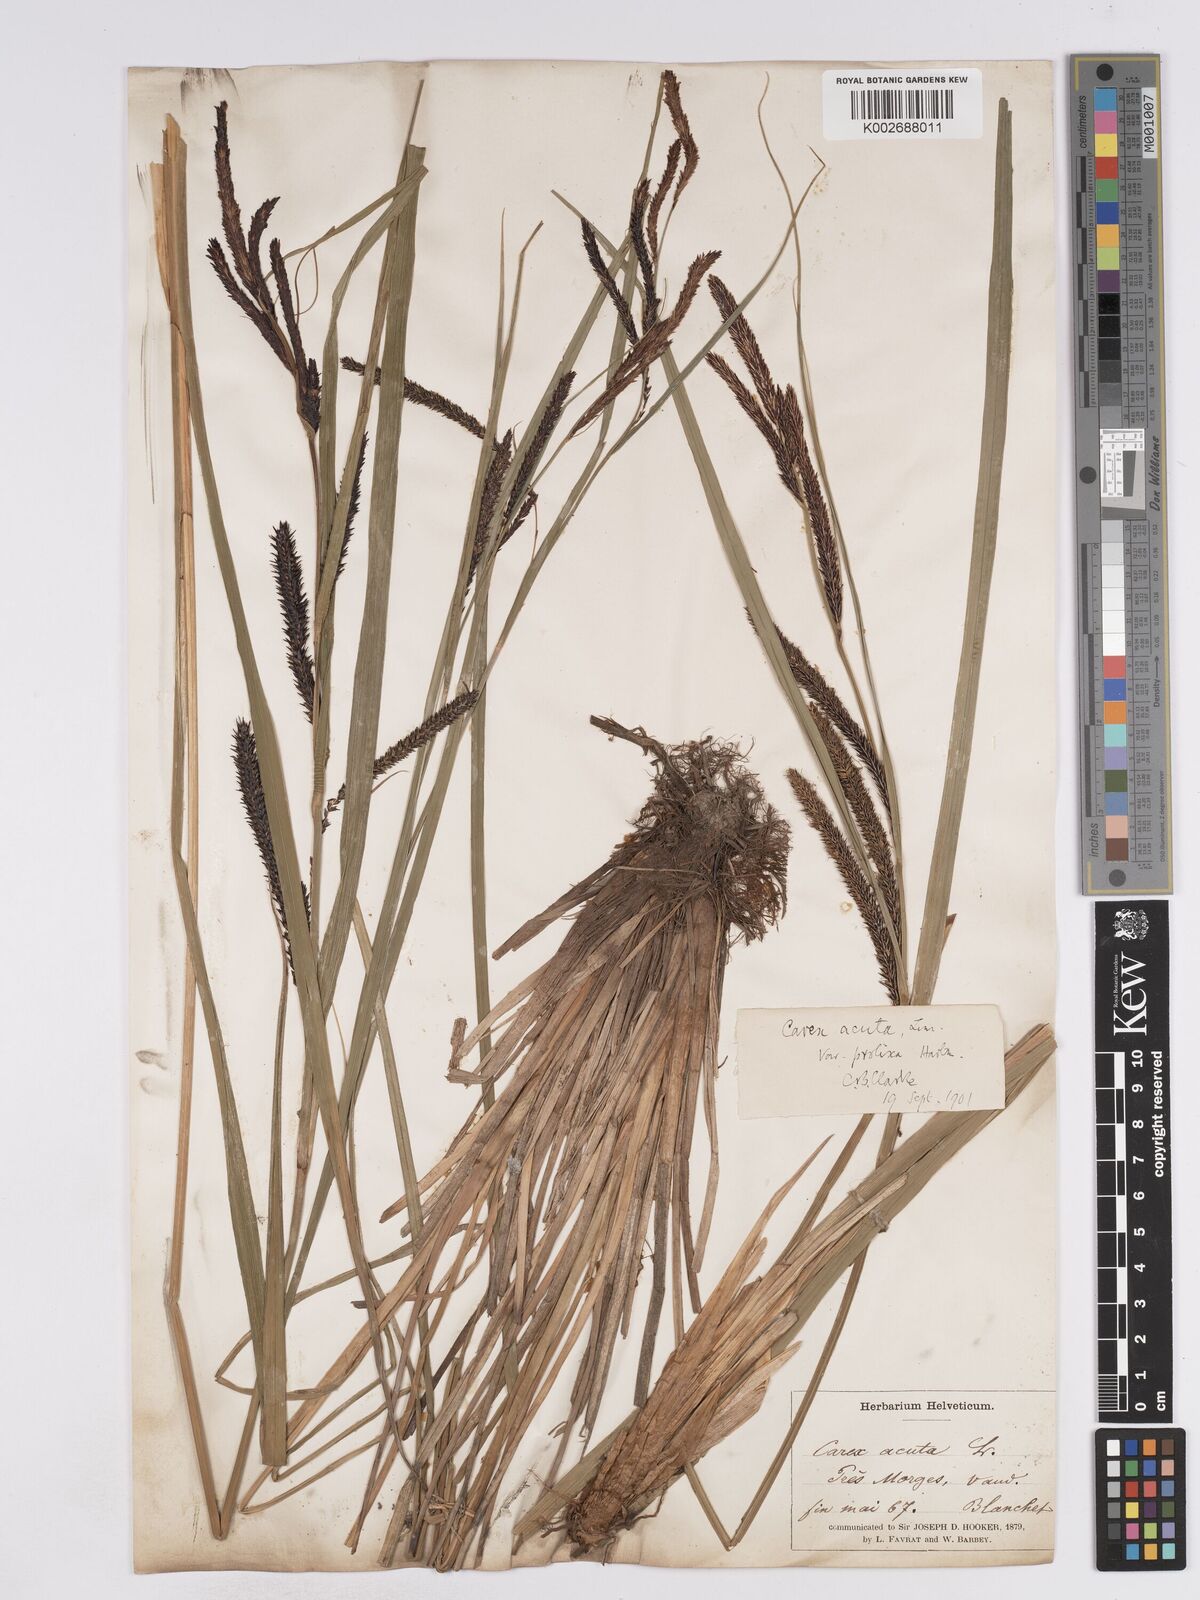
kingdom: Plantae
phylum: Tracheophyta
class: Liliopsida
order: Poales
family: Cyperaceae
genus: Carex
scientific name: Carex acuta
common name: Slender tufted-sedge
